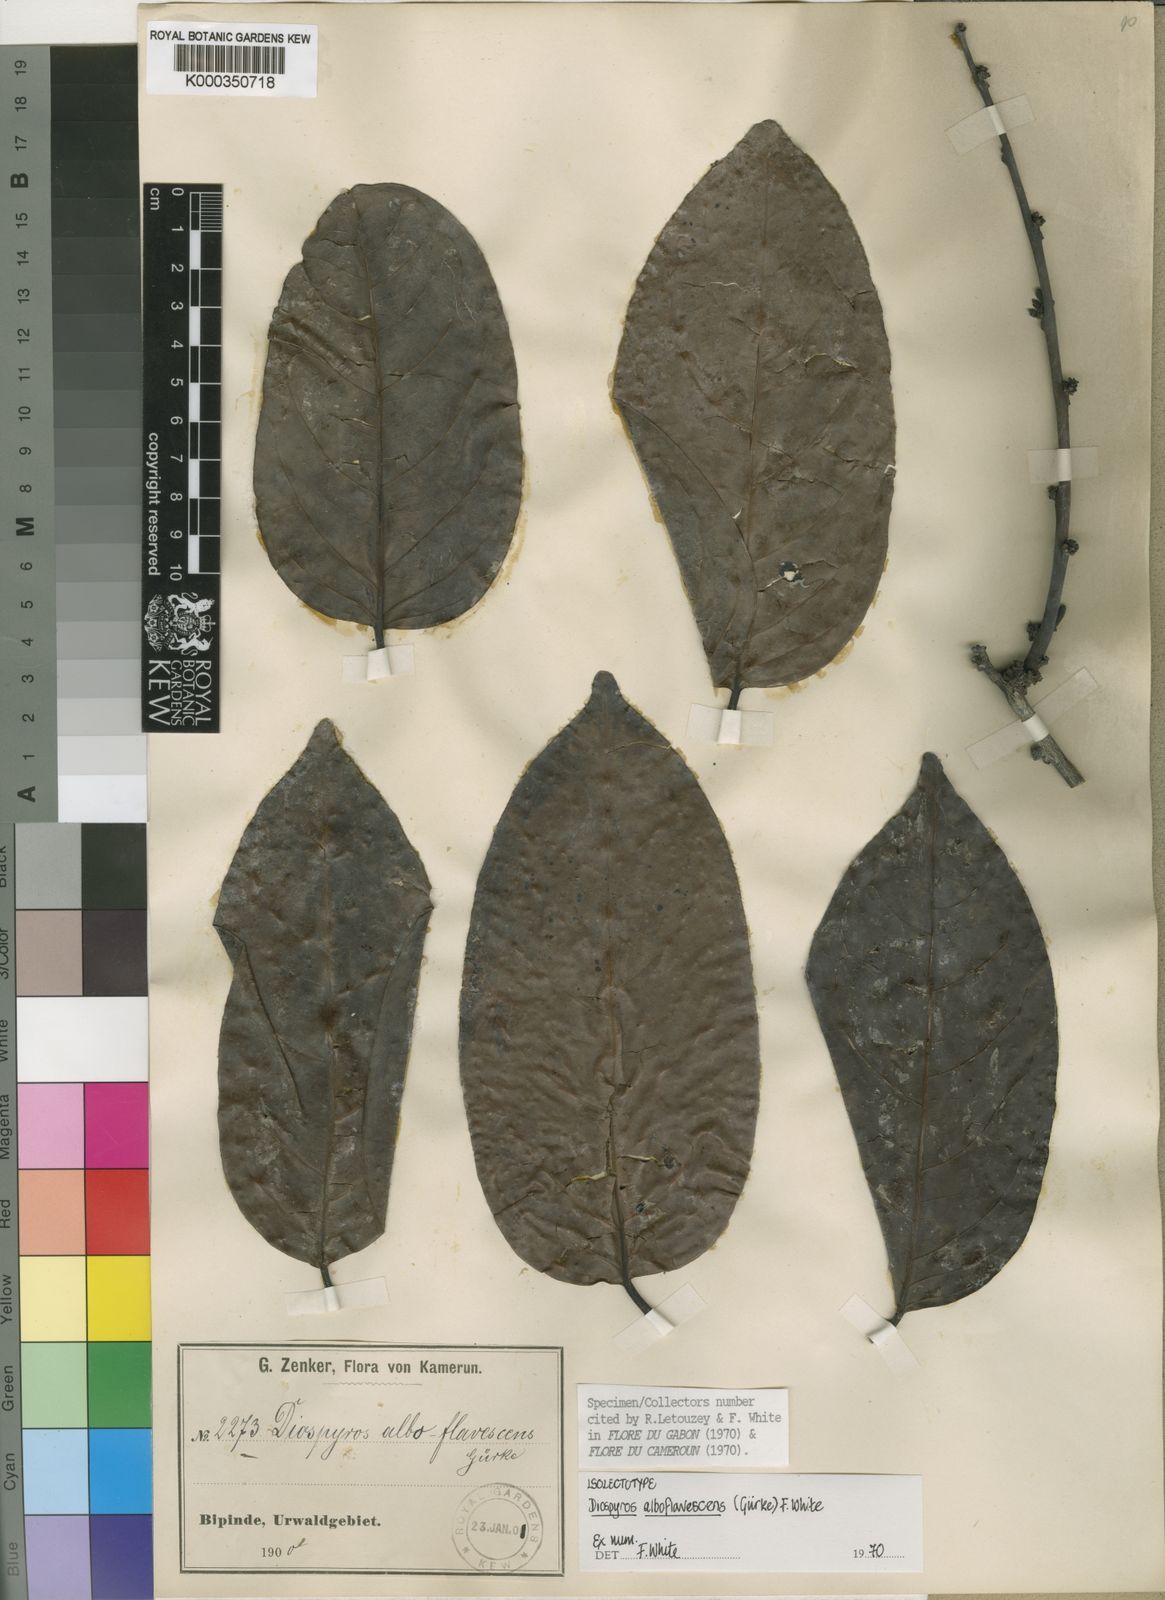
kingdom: Plantae
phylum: Tracheophyta
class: Magnoliopsida
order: Ericales
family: Ebenaceae
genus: Diospyros
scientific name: Diospyros
